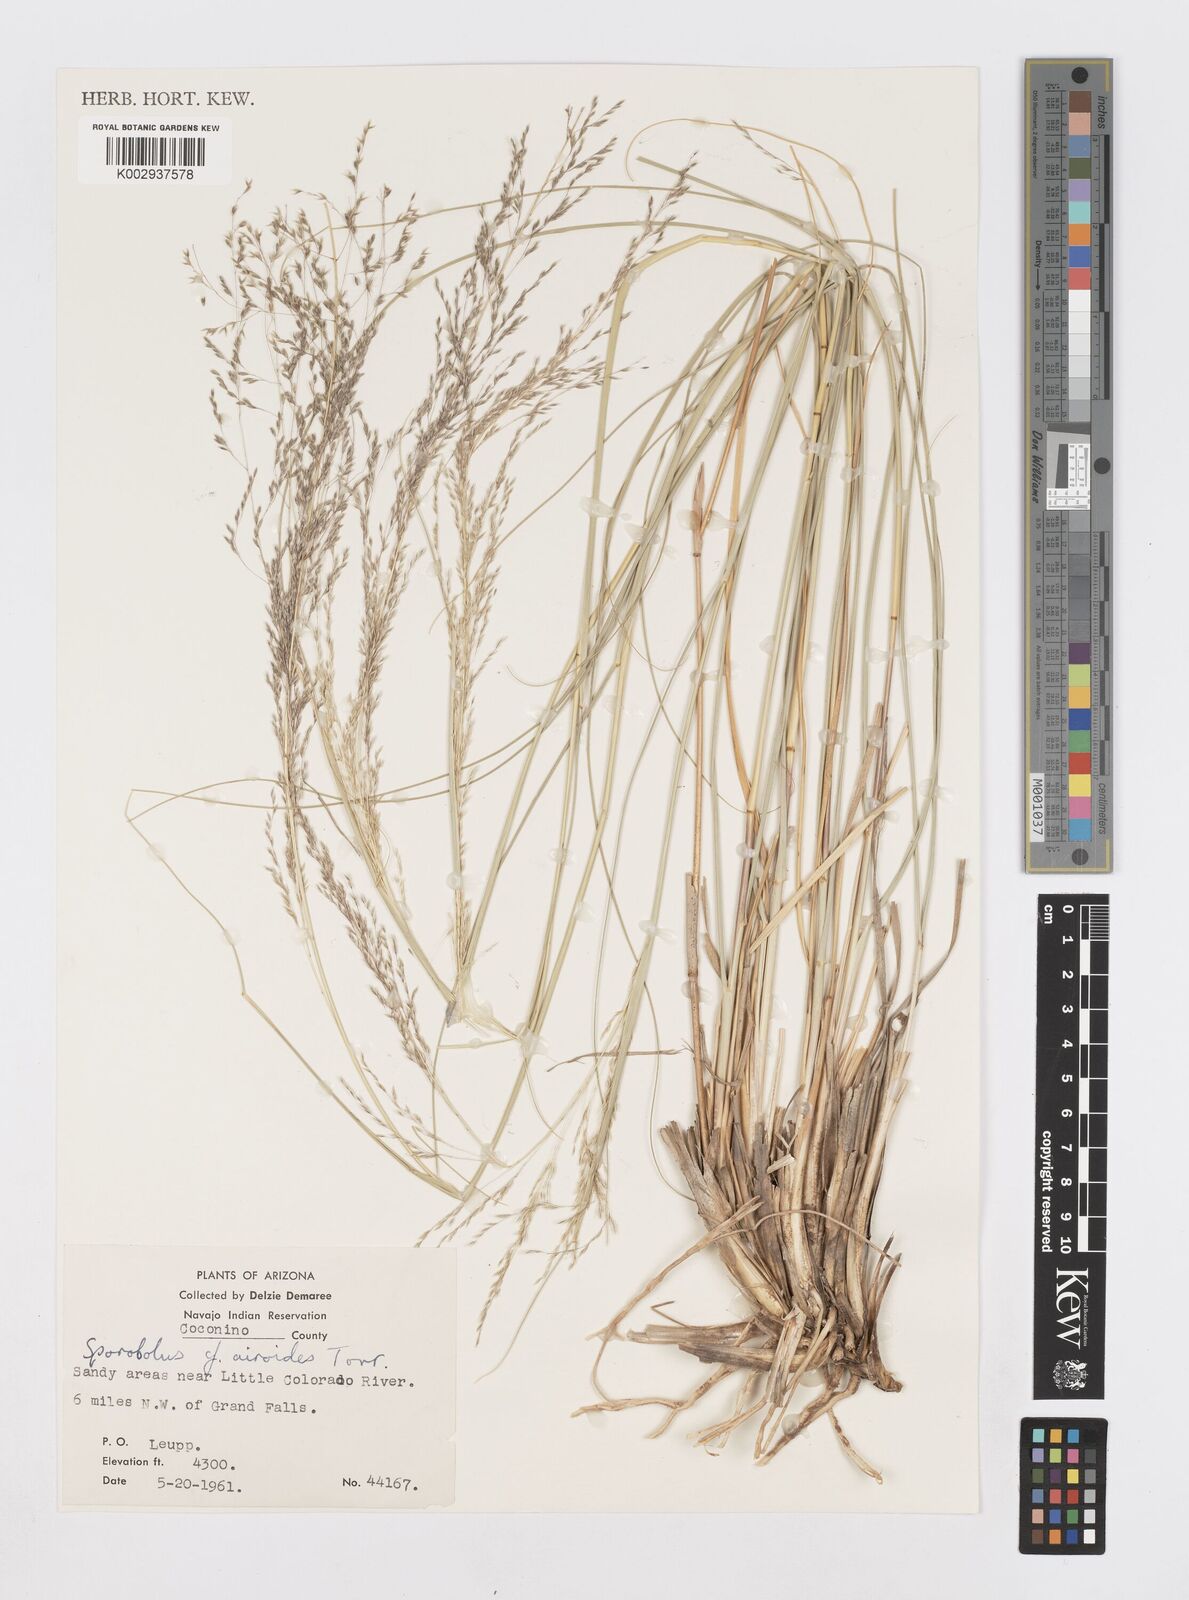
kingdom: Plantae
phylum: Tracheophyta
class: Liliopsida
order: Poales
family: Poaceae
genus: Sporobolus
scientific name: Sporobolus
